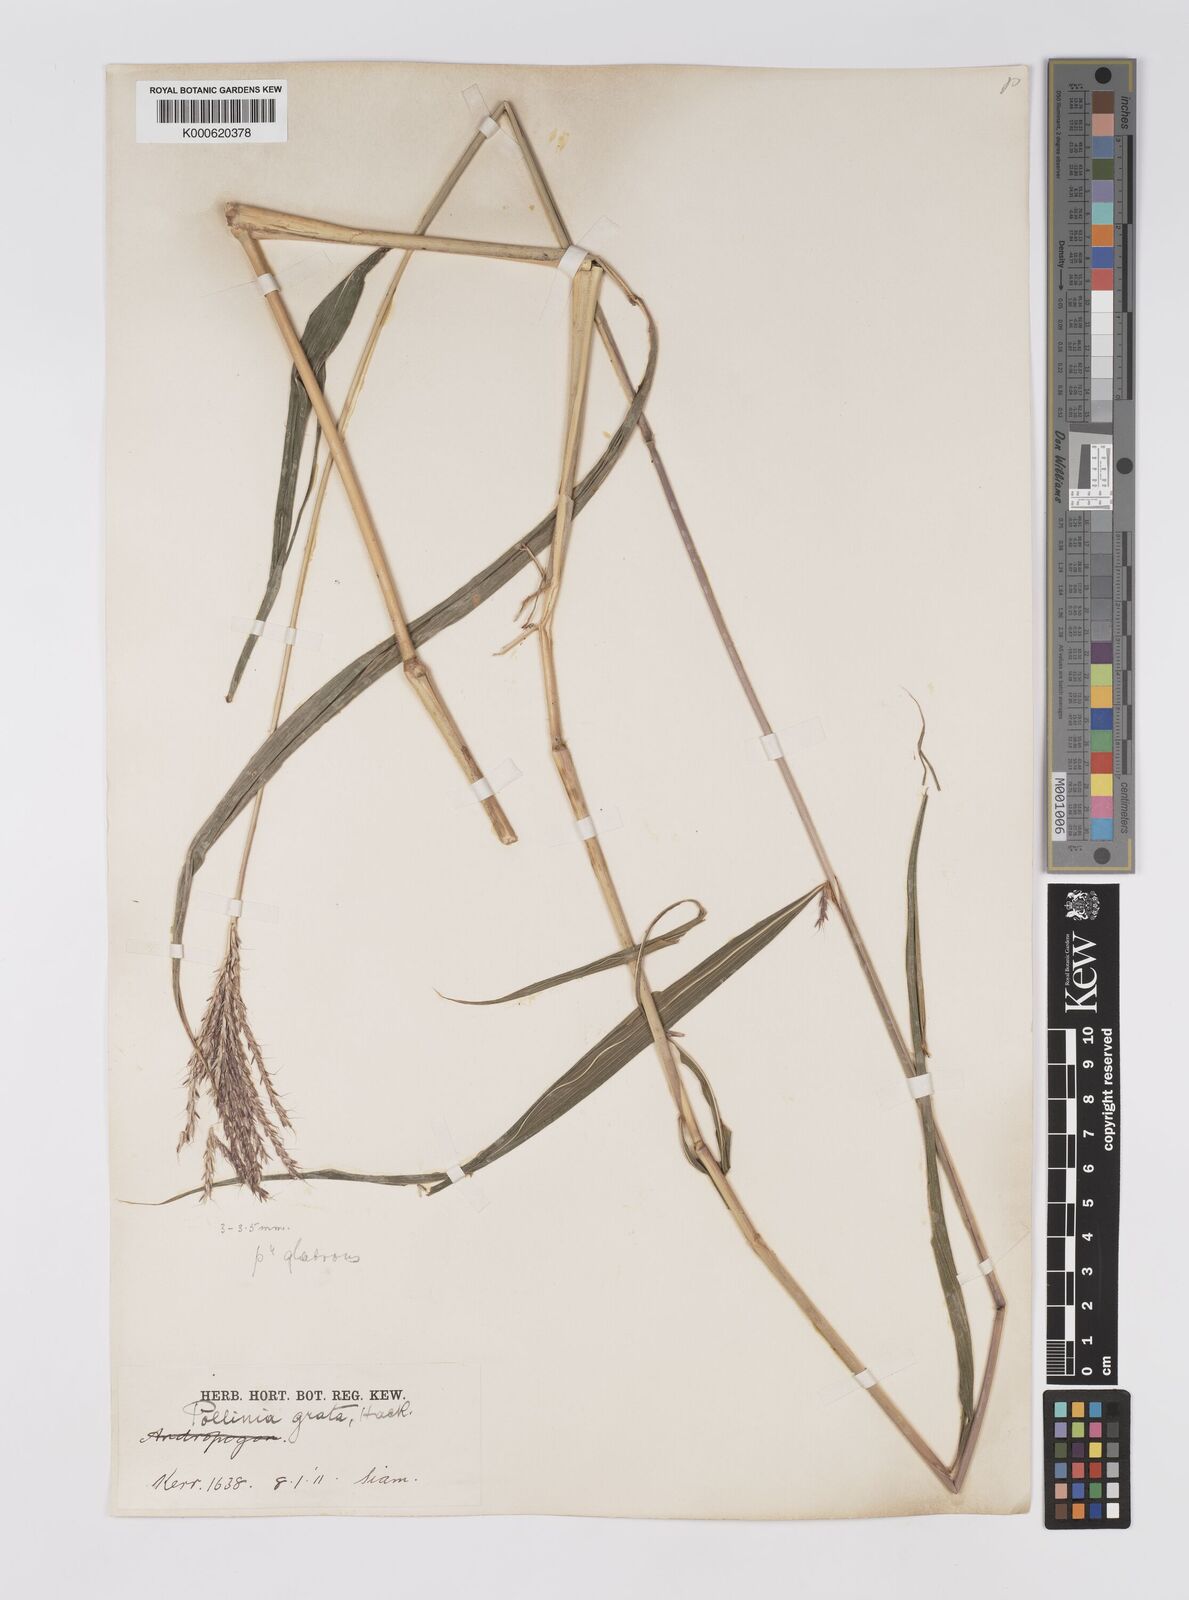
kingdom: Plantae
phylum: Tracheophyta
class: Liliopsida
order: Poales
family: Poaceae
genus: Microstegium
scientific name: Microstegium fasciculatum
